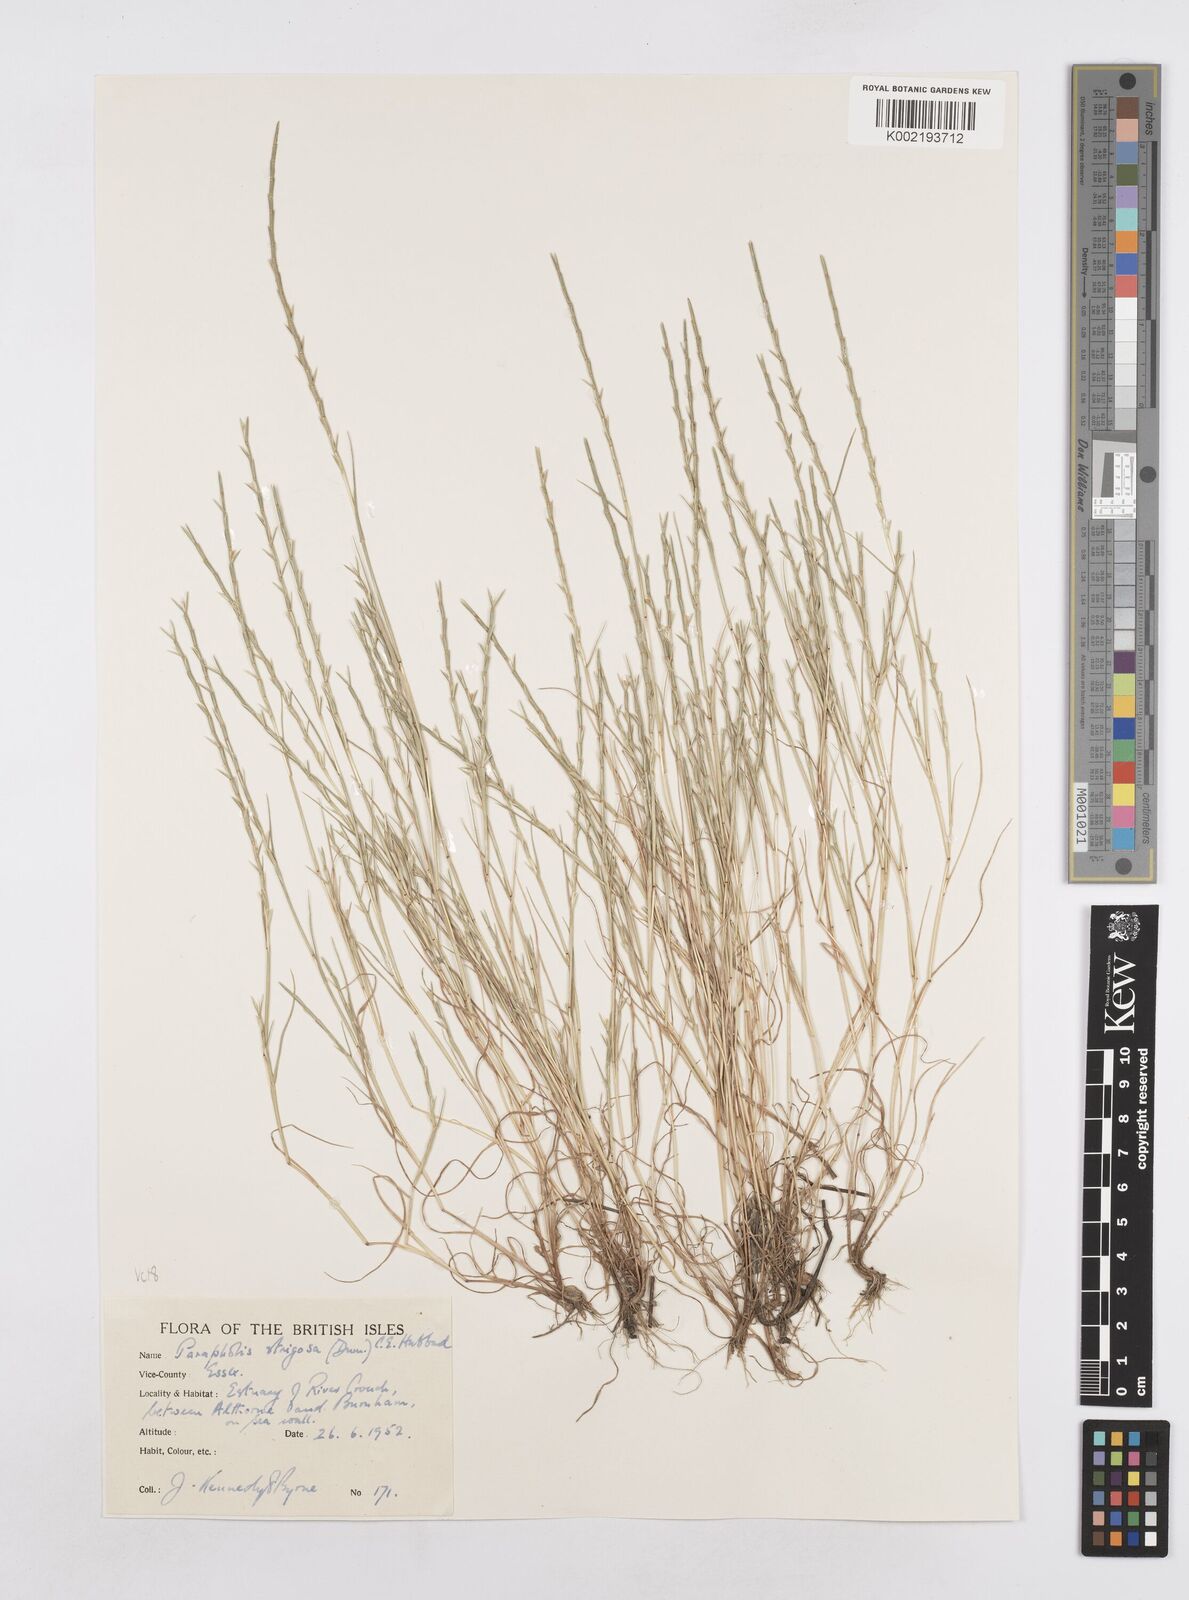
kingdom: Plantae
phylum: Tracheophyta
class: Liliopsida
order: Poales
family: Poaceae
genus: Parapholis
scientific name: Parapholis strigosa
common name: Hard-grass
